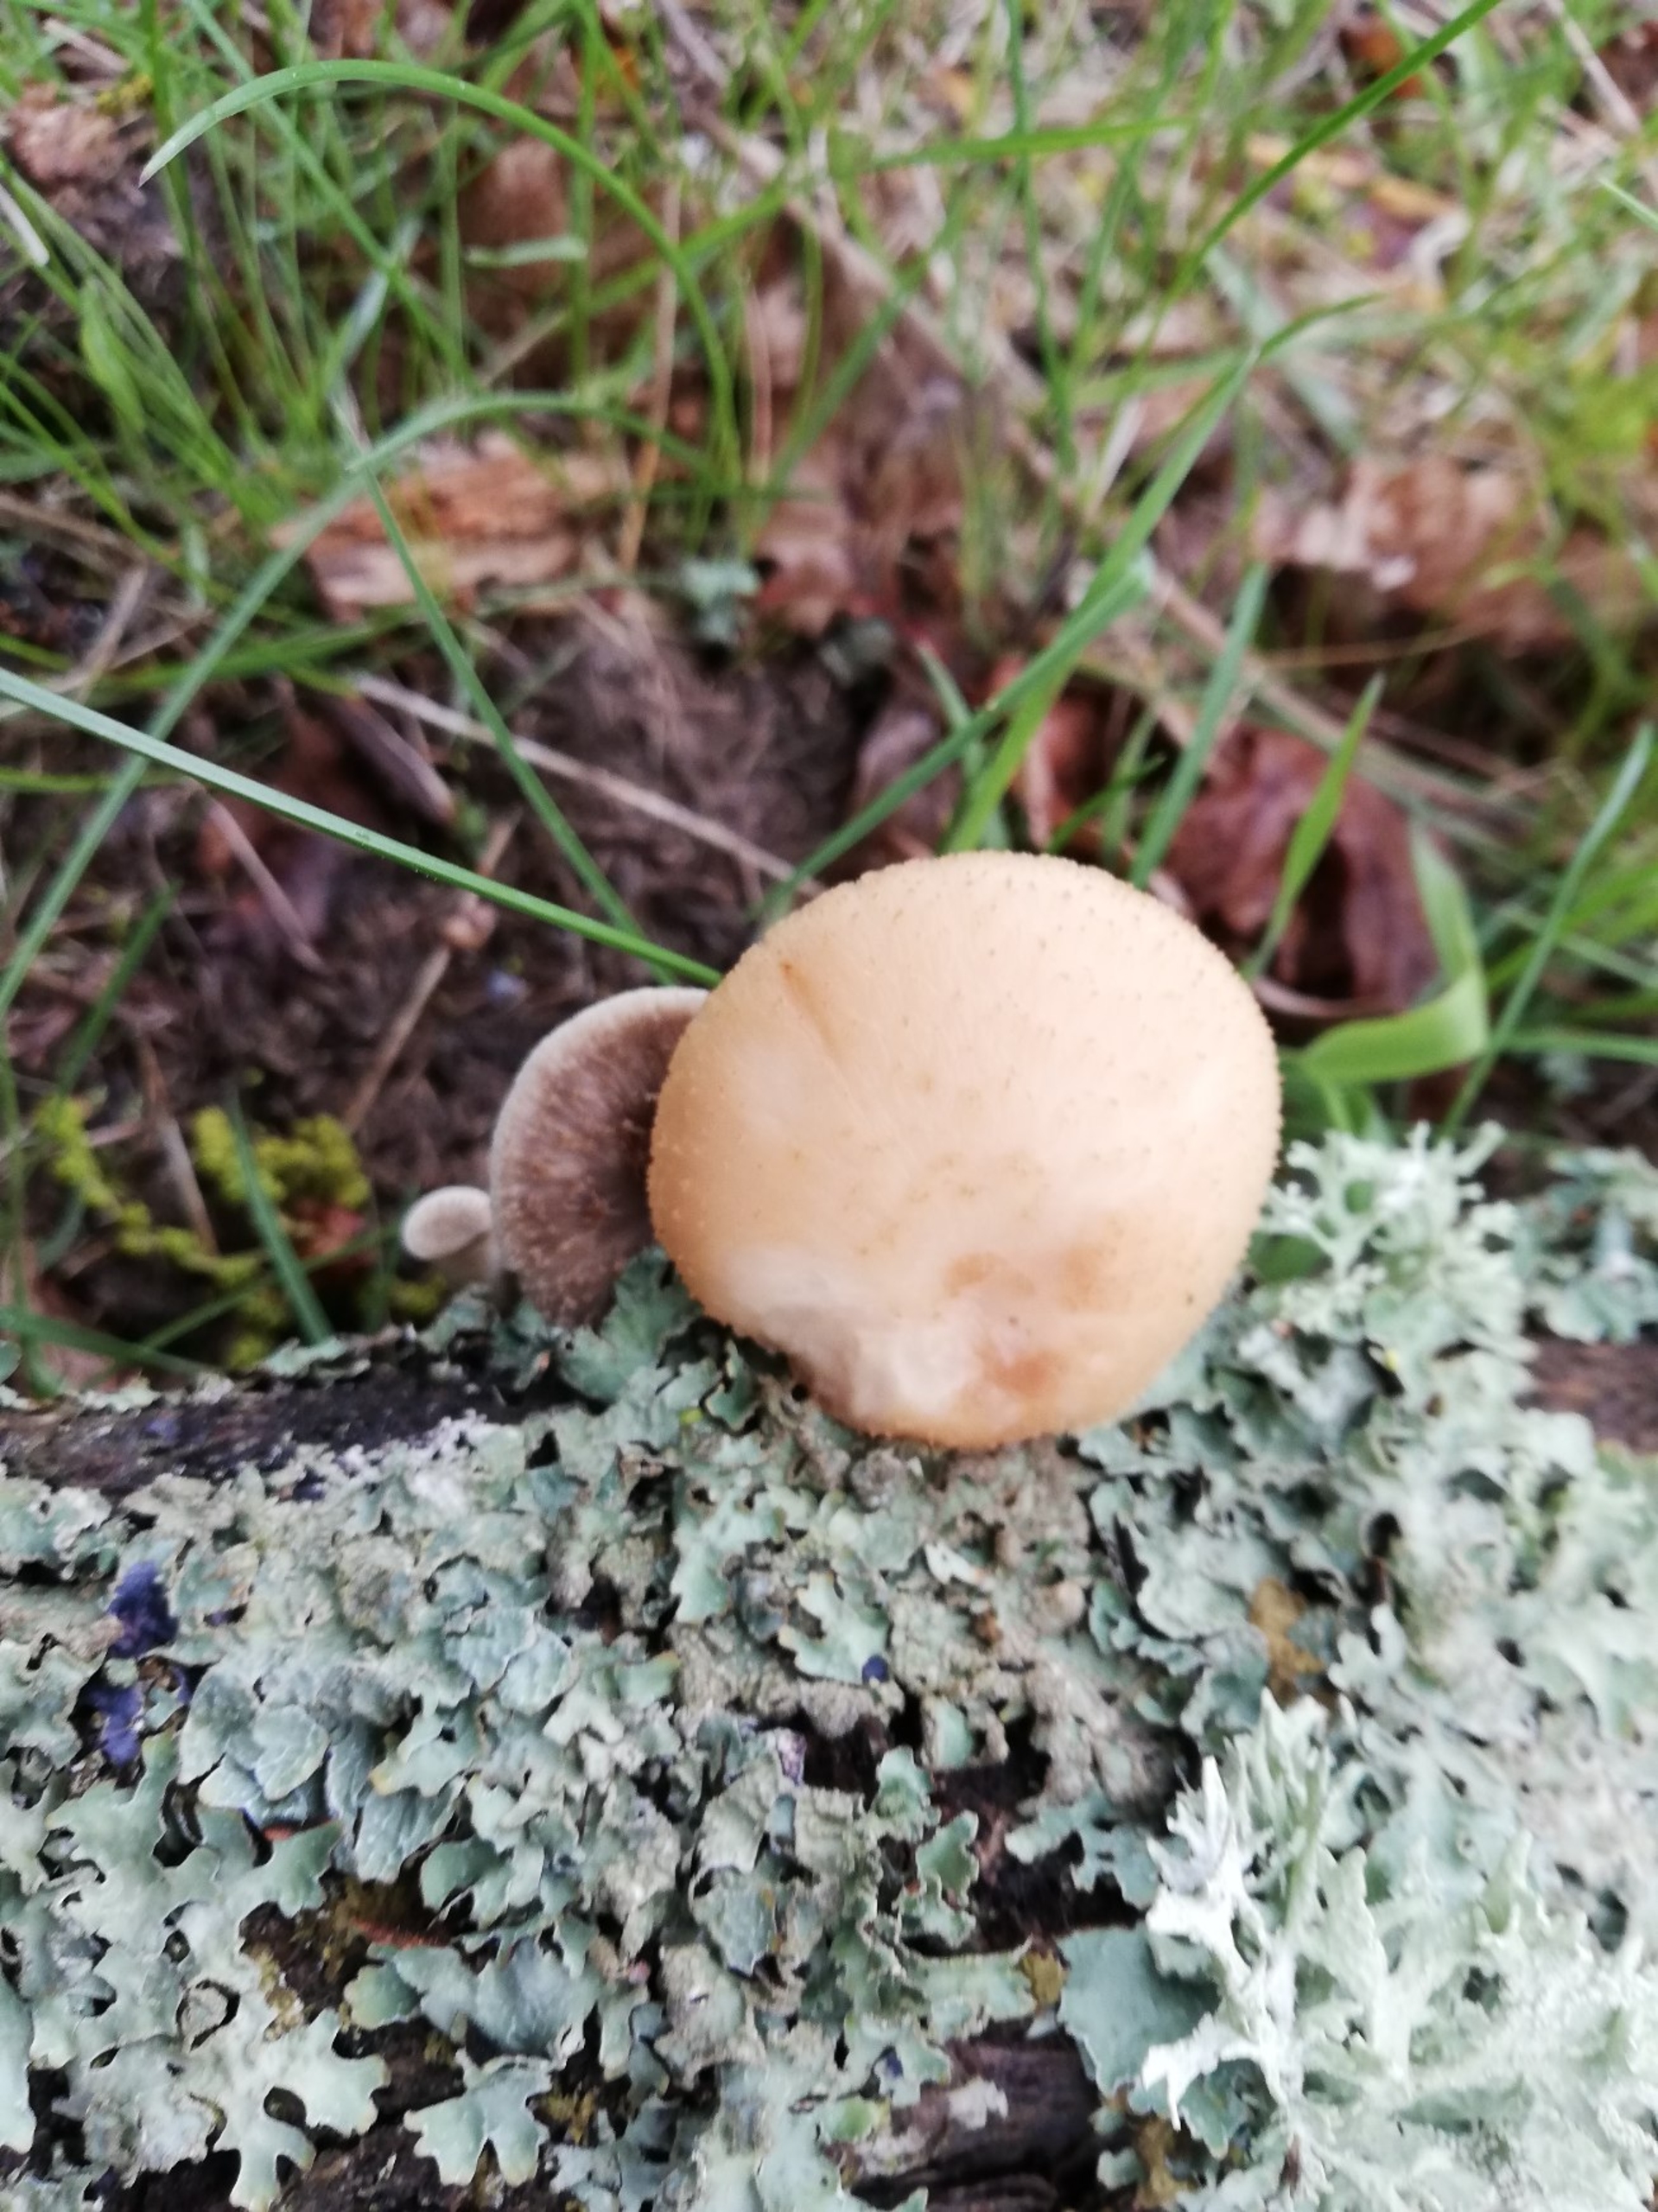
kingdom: Fungi
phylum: Basidiomycota
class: Agaricomycetes
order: Polyporales
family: Polyporaceae
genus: Lentinus
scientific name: Lentinus substrictus
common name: Forårs-stilkporesvamp
